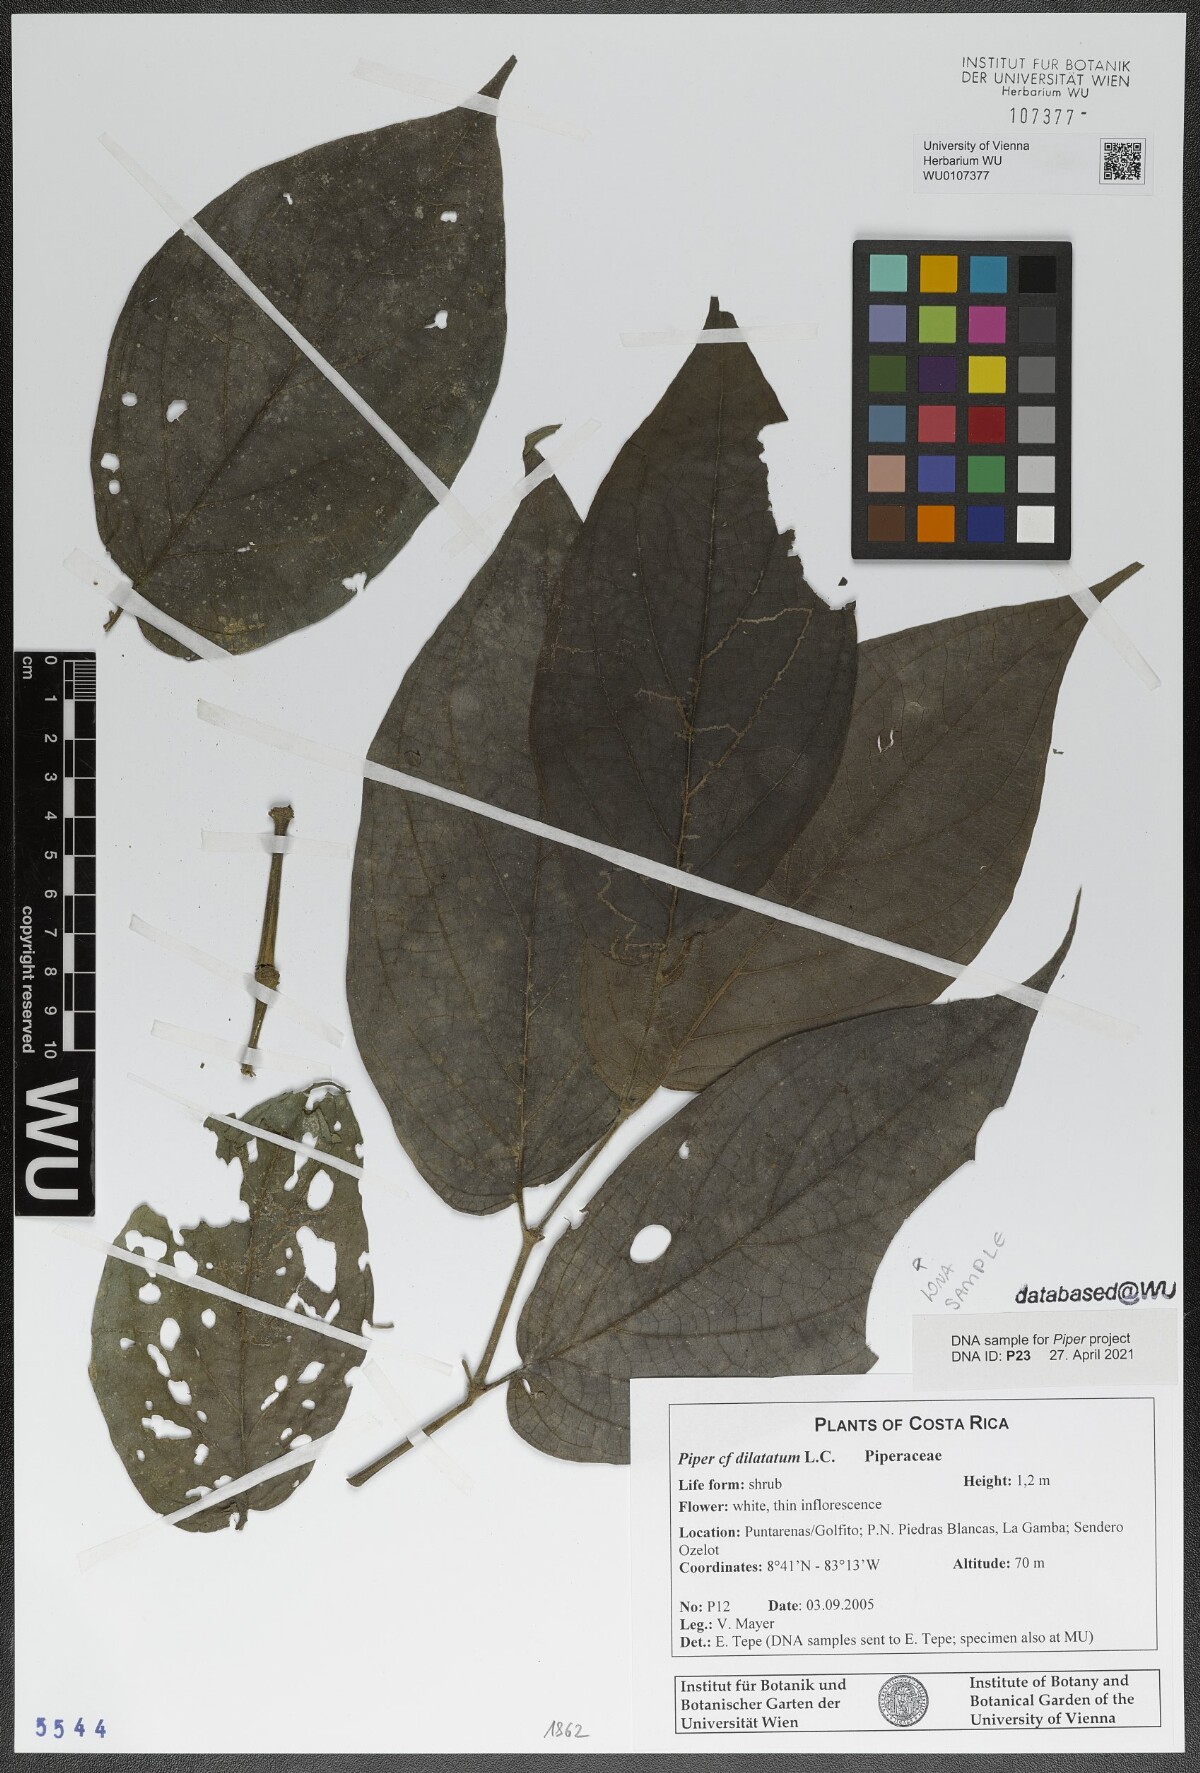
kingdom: Plantae
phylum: Tracheophyta
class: Magnoliopsida
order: Piperales
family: Piperaceae
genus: Piper
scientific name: Piper dilatatum
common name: Higuillo
